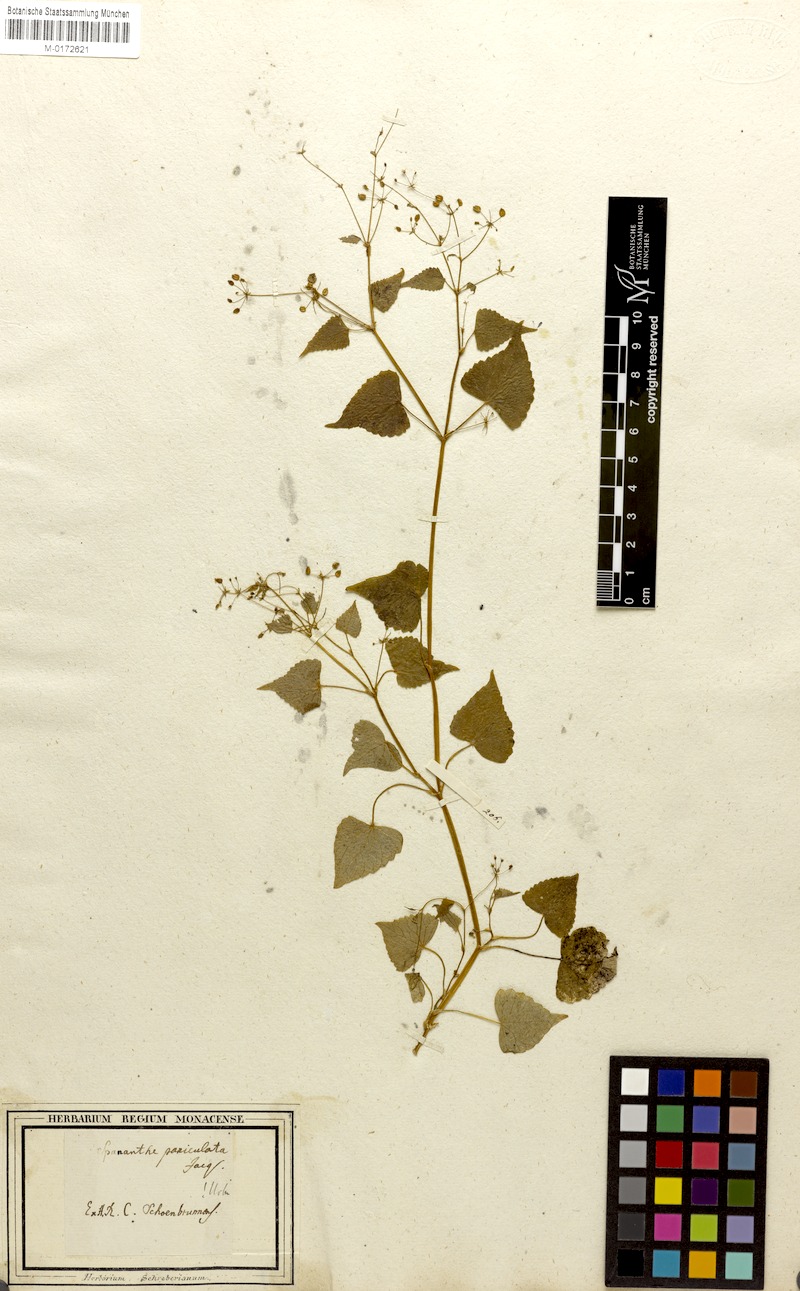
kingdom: Plantae
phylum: Tracheophyta
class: Magnoliopsida
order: Apiales
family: Apiaceae
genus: Spananthe
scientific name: Spananthe paniculata
